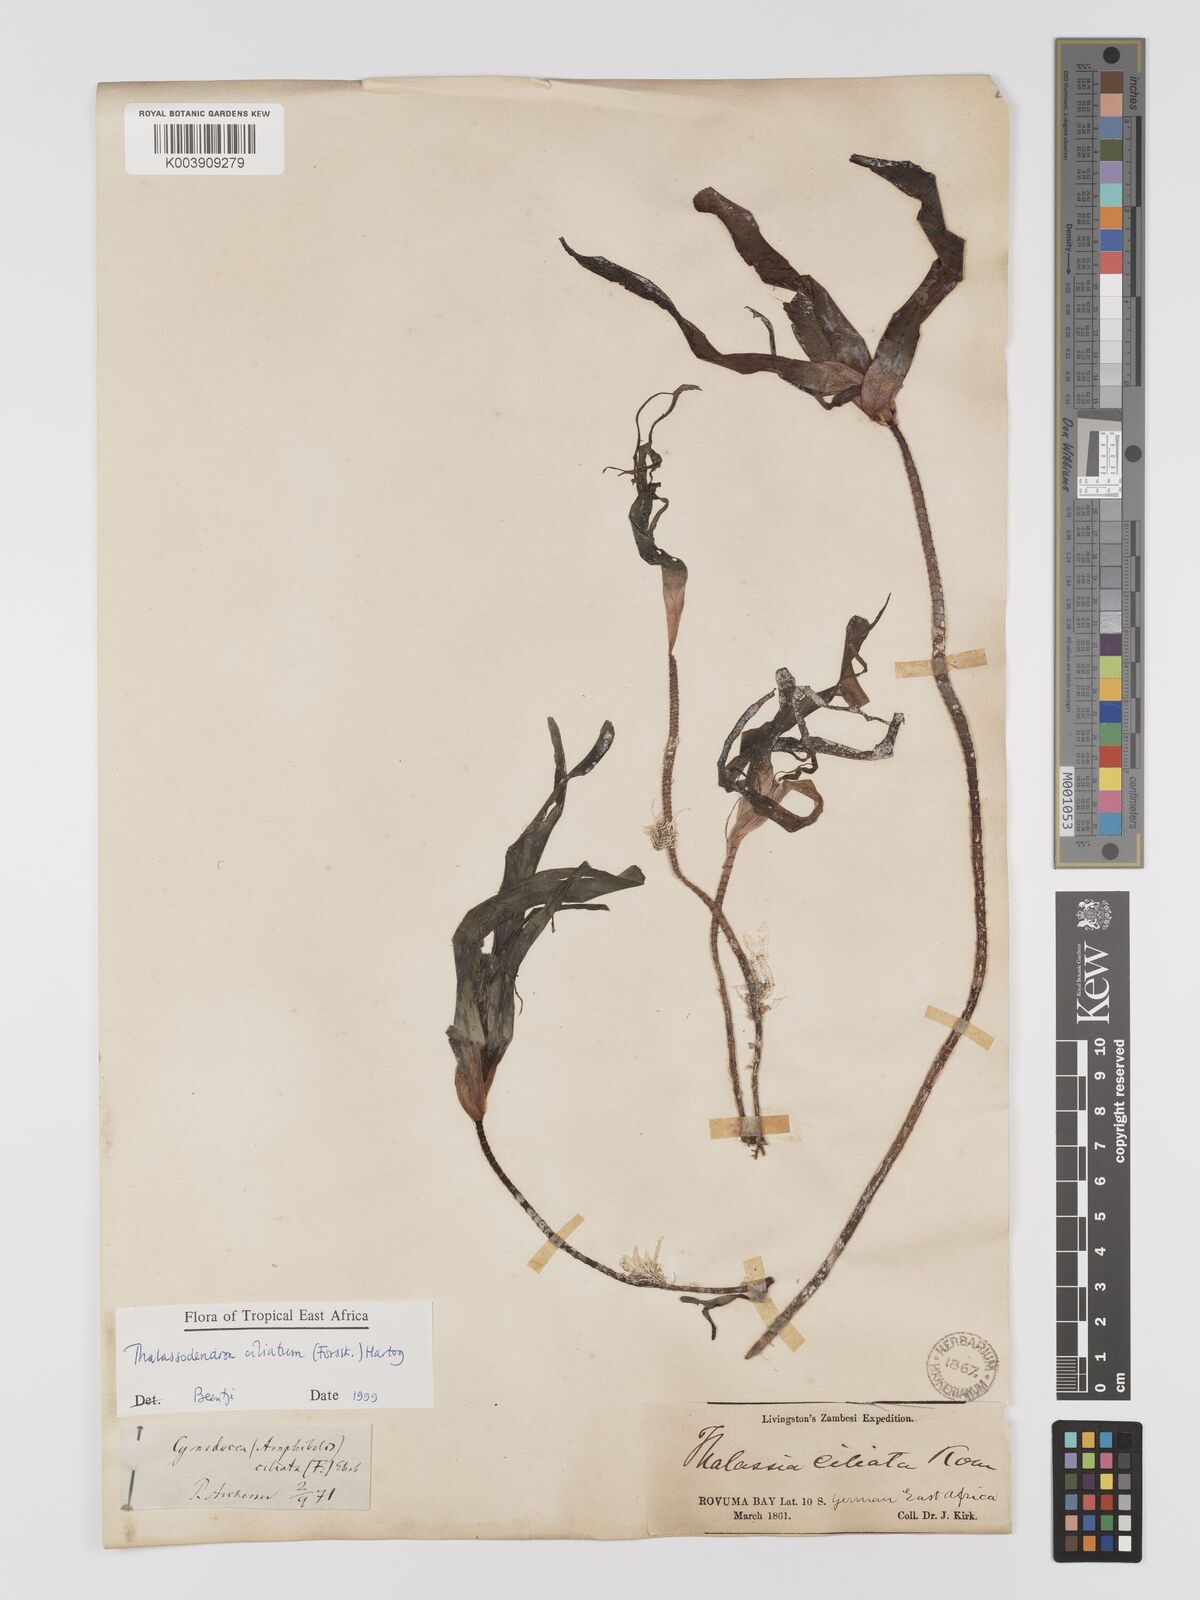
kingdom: Plantae
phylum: Tracheophyta
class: Liliopsida
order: Alismatales
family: Cymodoceaceae
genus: Thalassodendron
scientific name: Thalassodendron ciliatum
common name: Species code: tc
